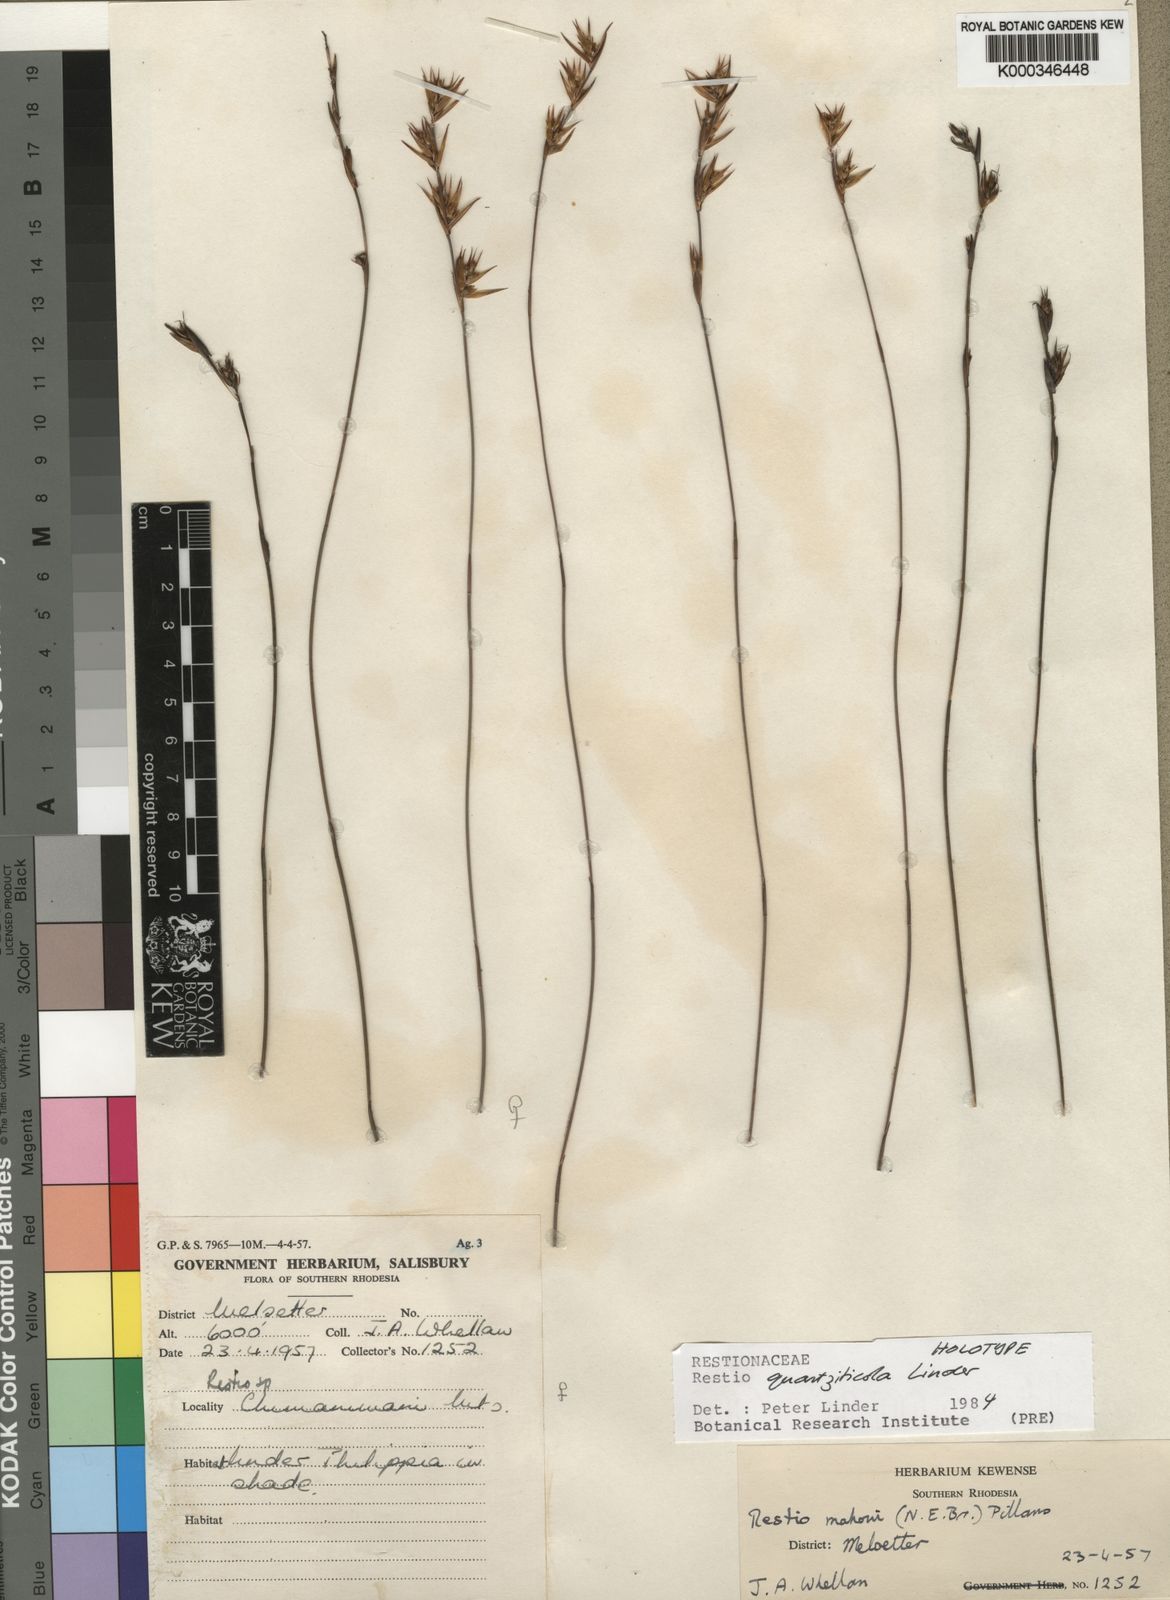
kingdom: Plantae
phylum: Tracheophyta
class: Liliopsida
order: Poales
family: Restionaceae
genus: Platycaulos
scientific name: Platycaulos quartziticola
